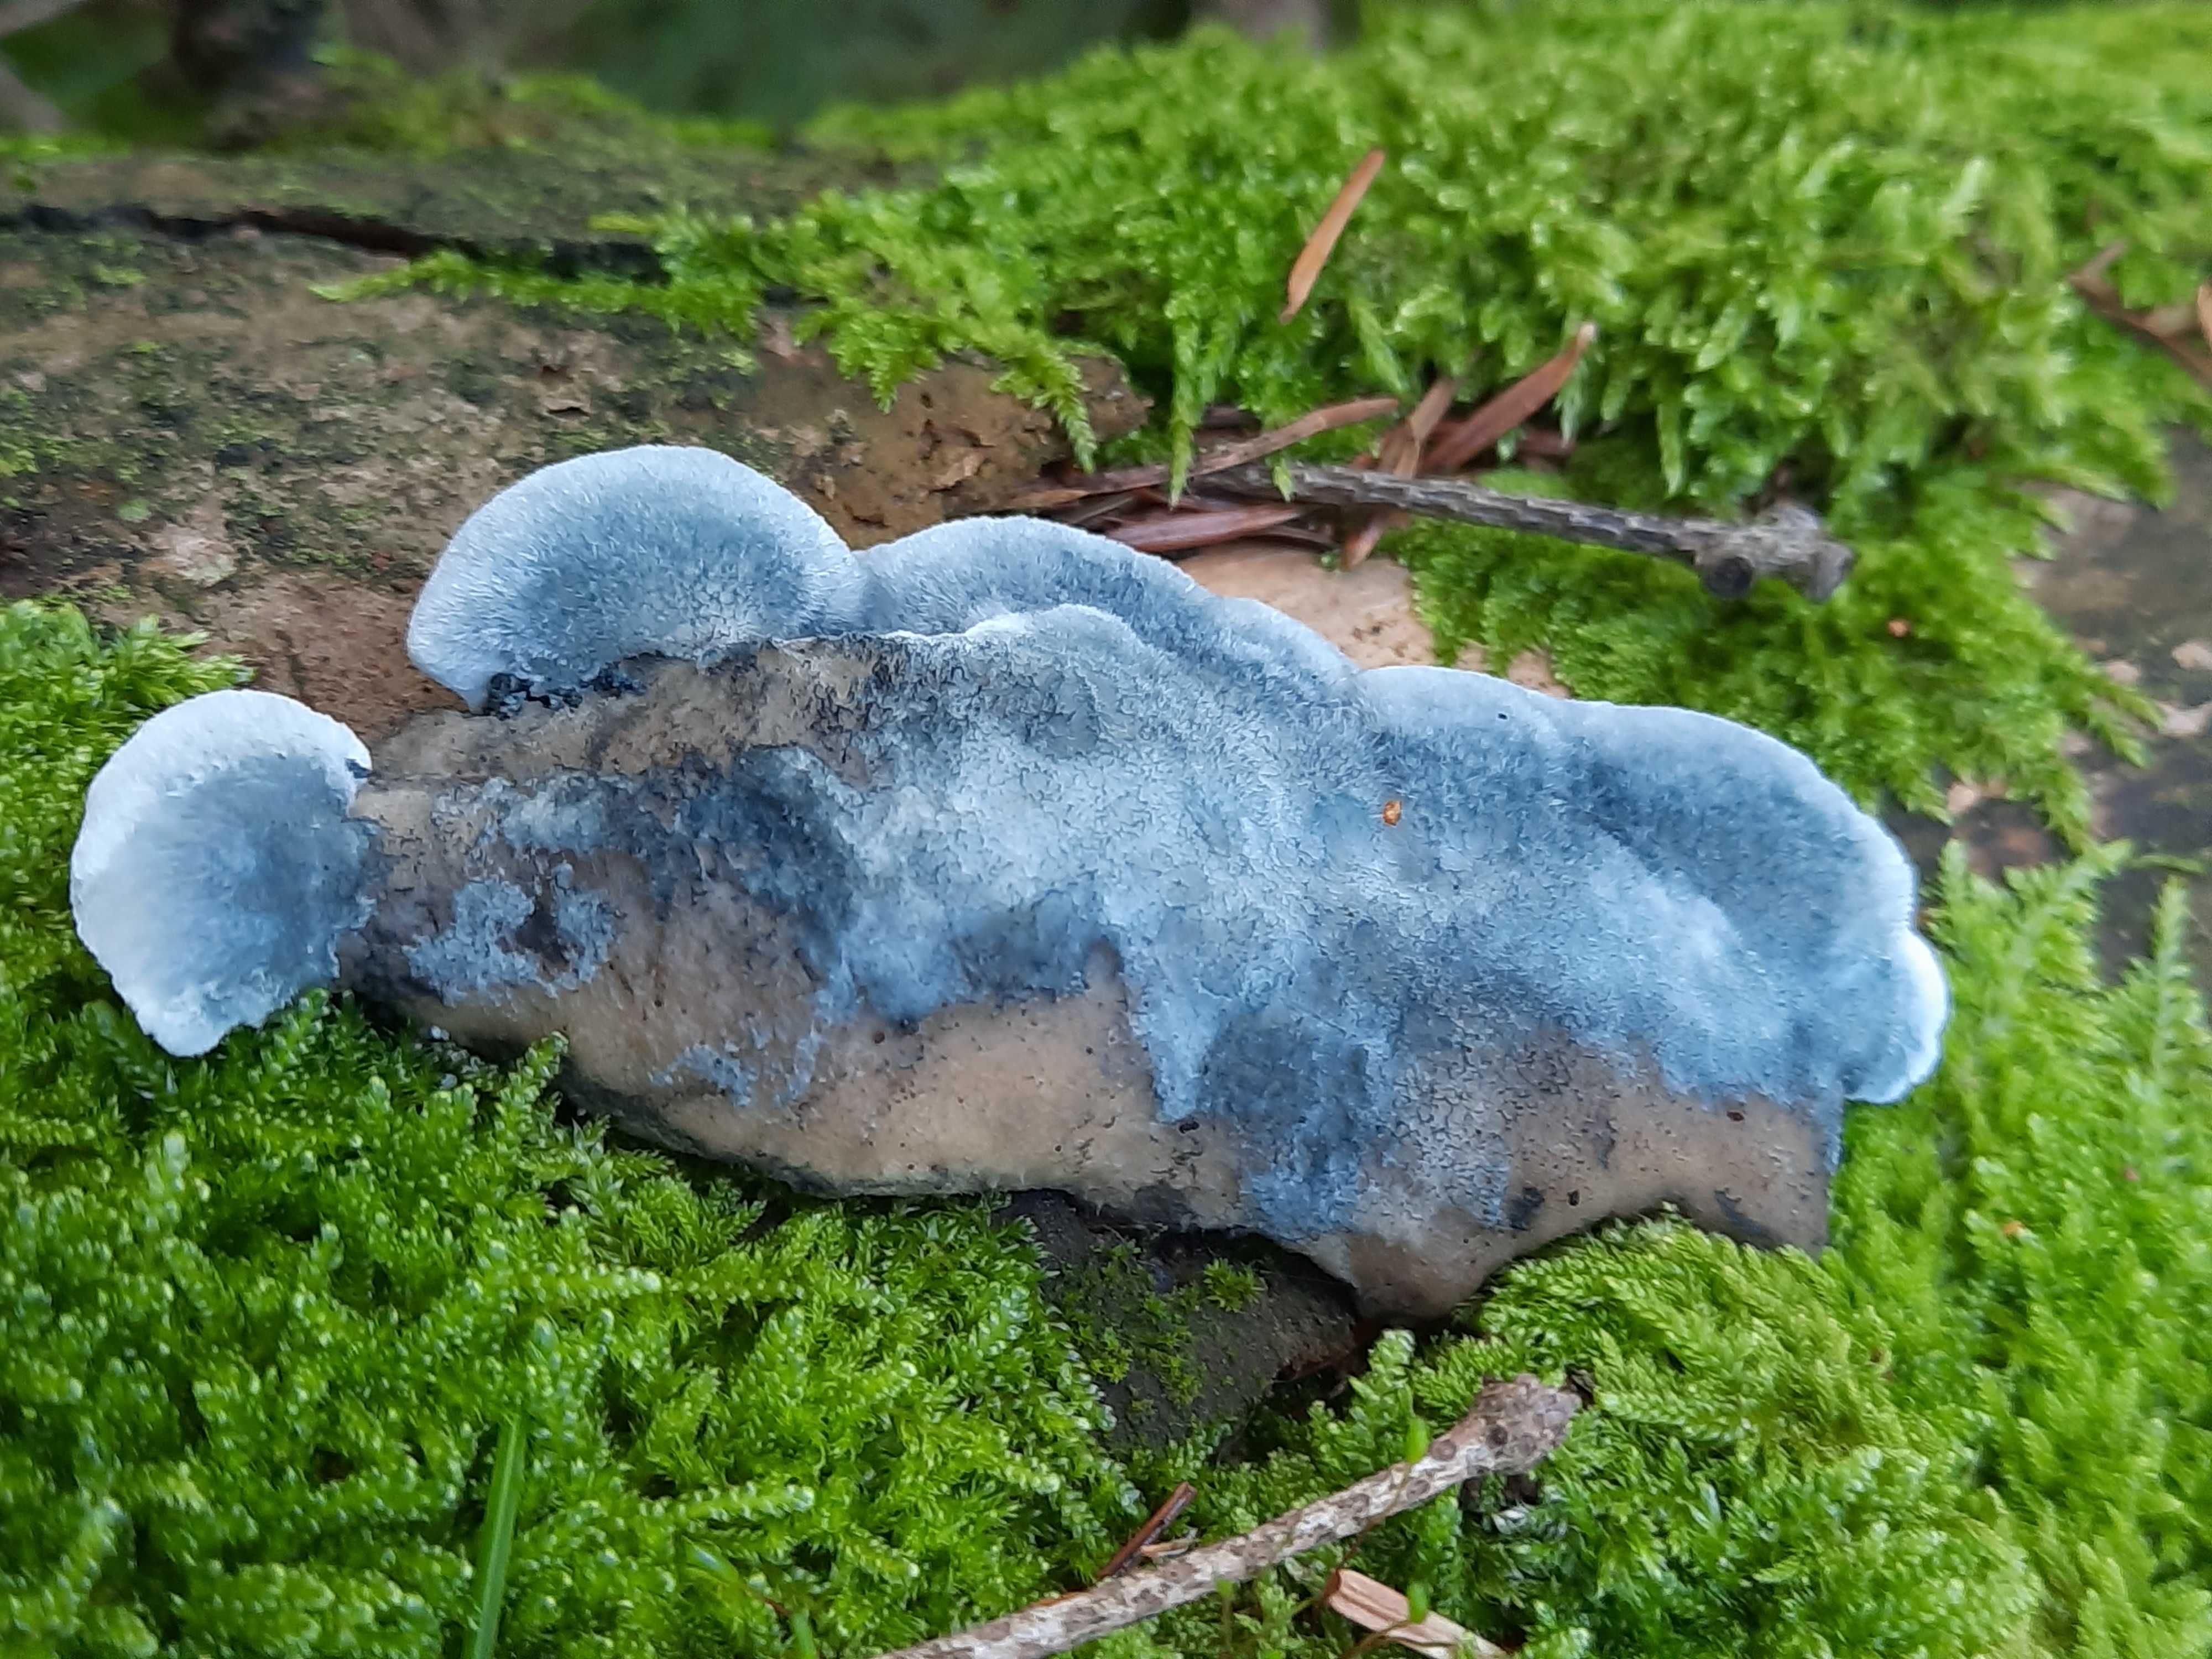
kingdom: Fungi
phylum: Basidiomycota
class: Agaricomycetes
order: Polyporales
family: Polyporaceae
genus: Cyanosporus
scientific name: Cyanosporus caesius
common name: blålig kødporesvamp
